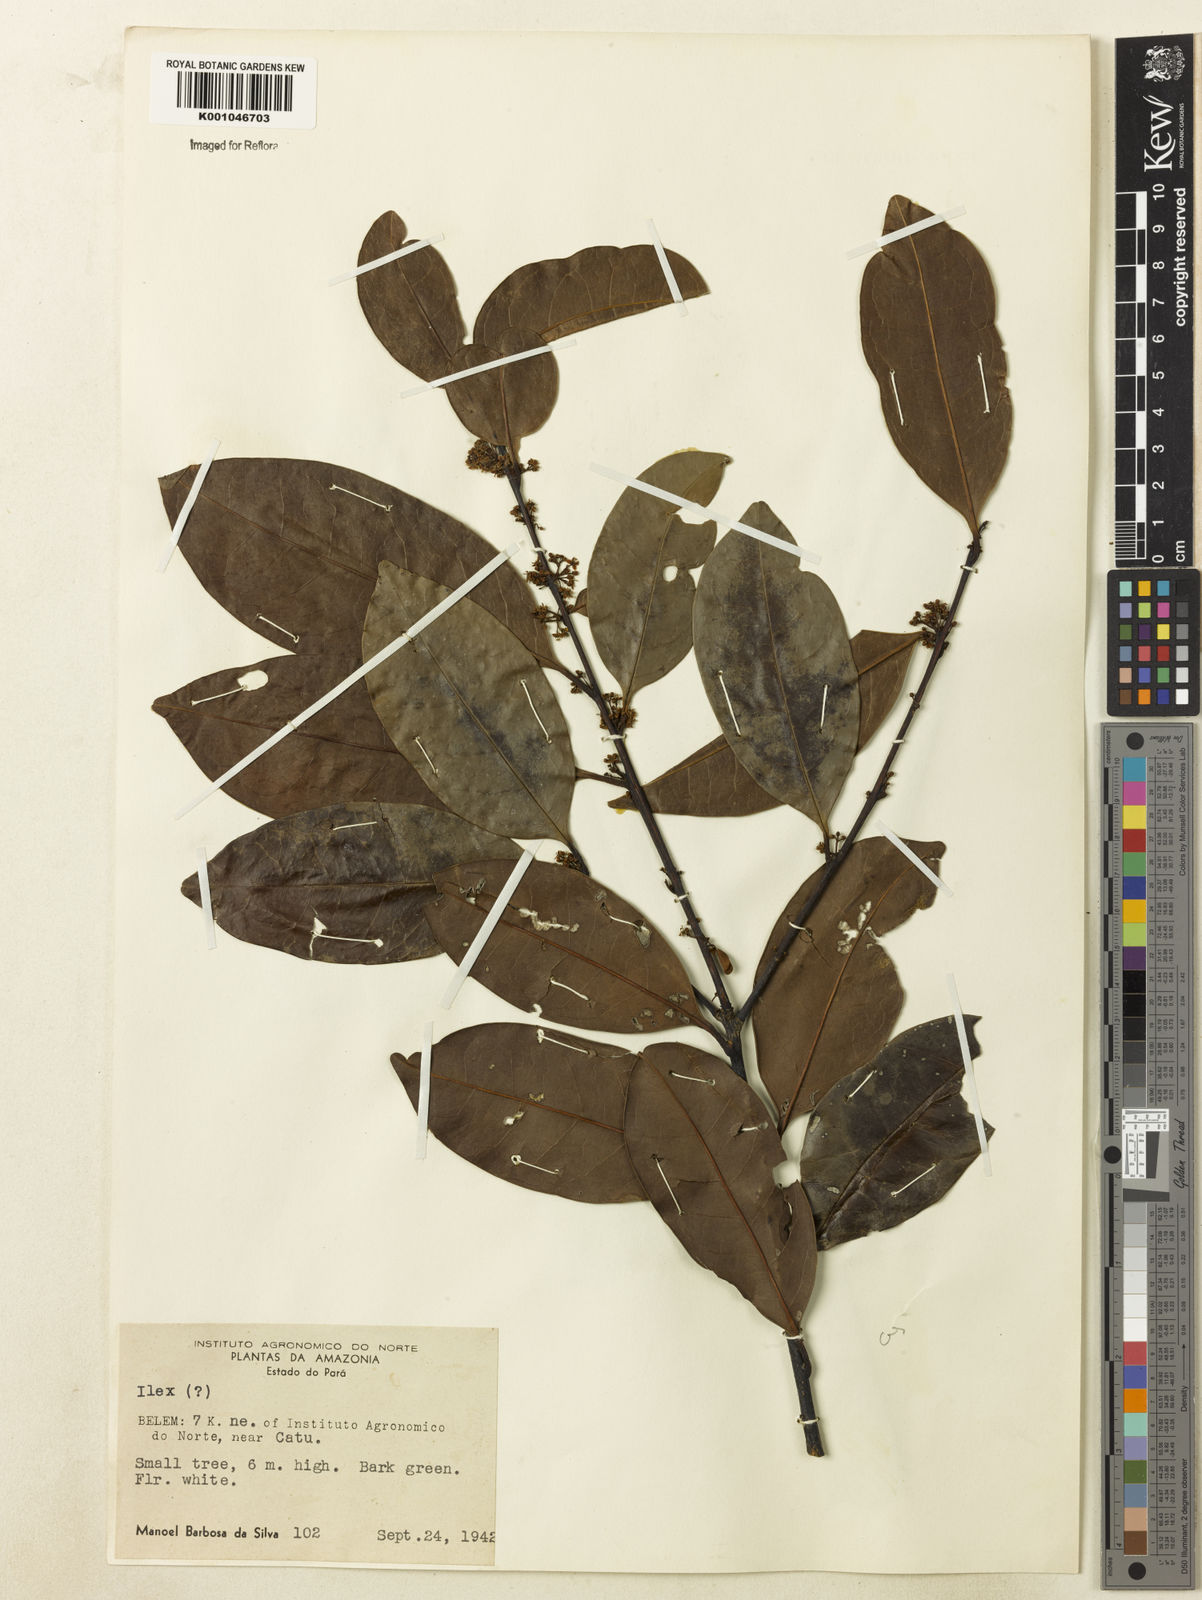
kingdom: Plantae
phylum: Tracheophyta
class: Magnoliopsida
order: Aquifoliales
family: Aquifoliaceae
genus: Ilex
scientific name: Ilex inundata
